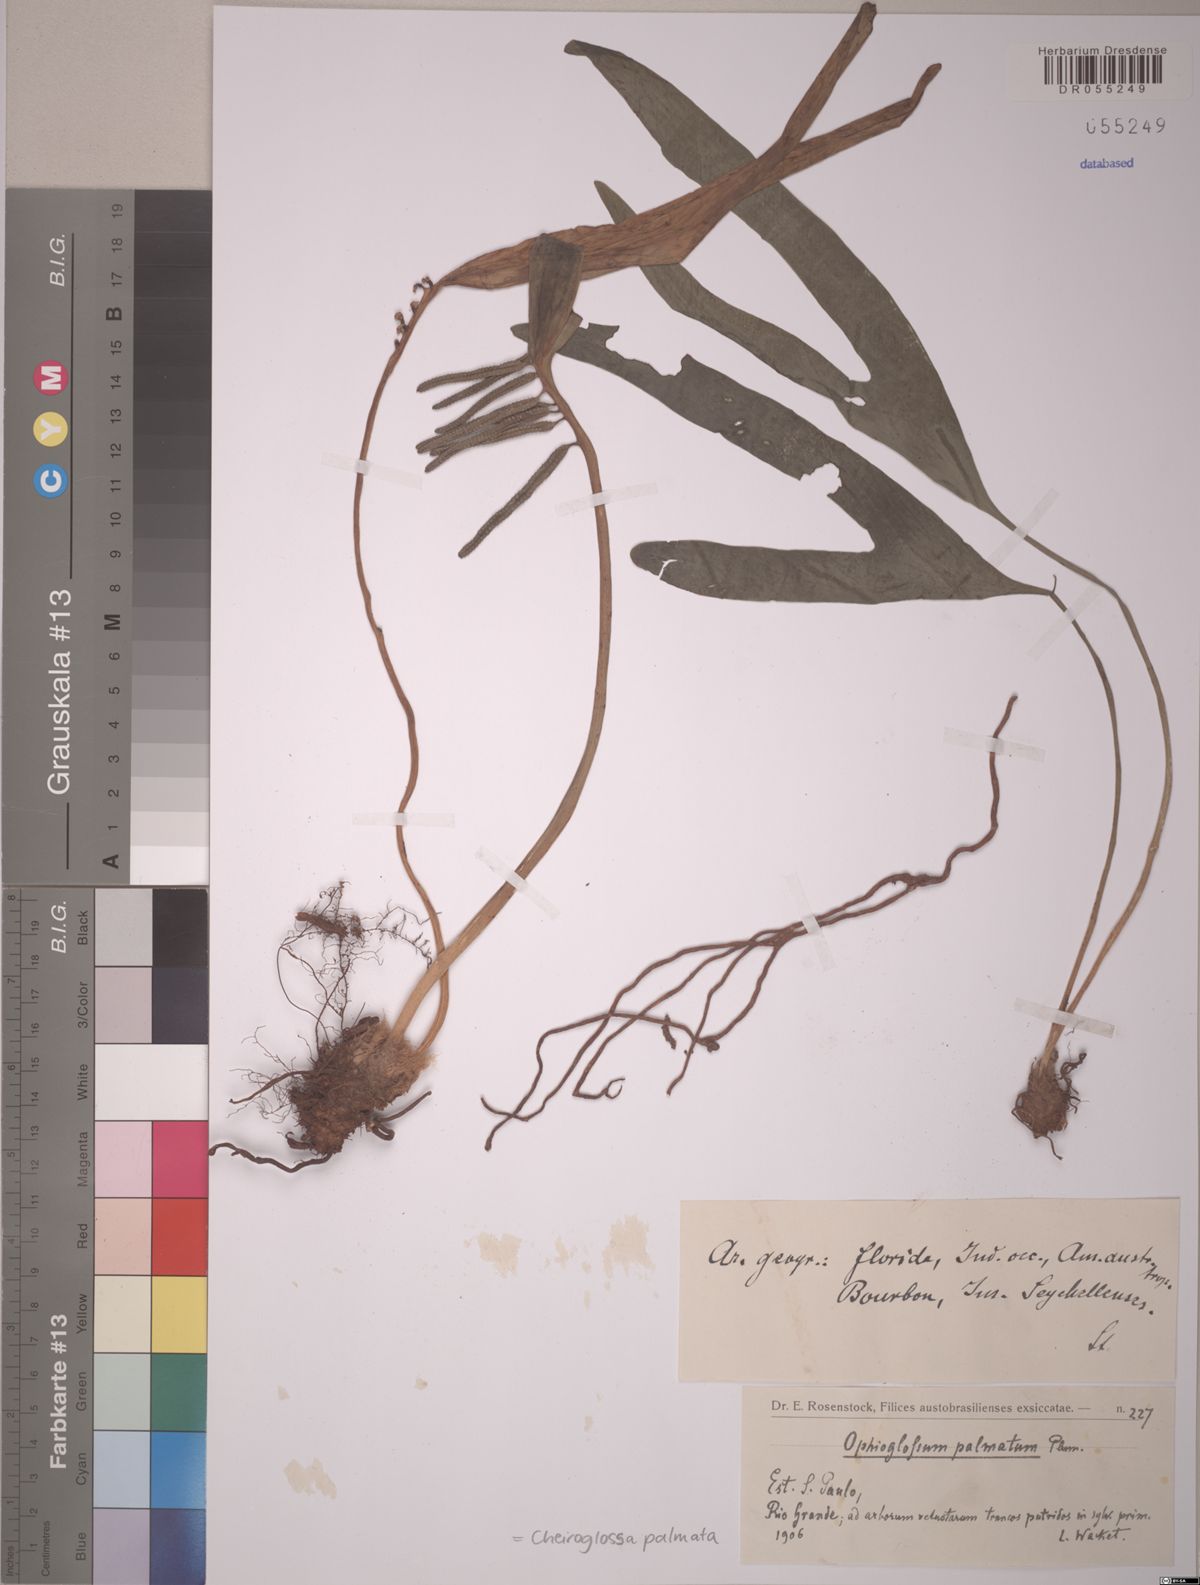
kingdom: Plantae
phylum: Tracheophyta
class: Polypodiopsida
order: Ophioglossales
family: Ophioglossaceae
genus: Cheiroglossa
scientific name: Cheiroglossa palmata
